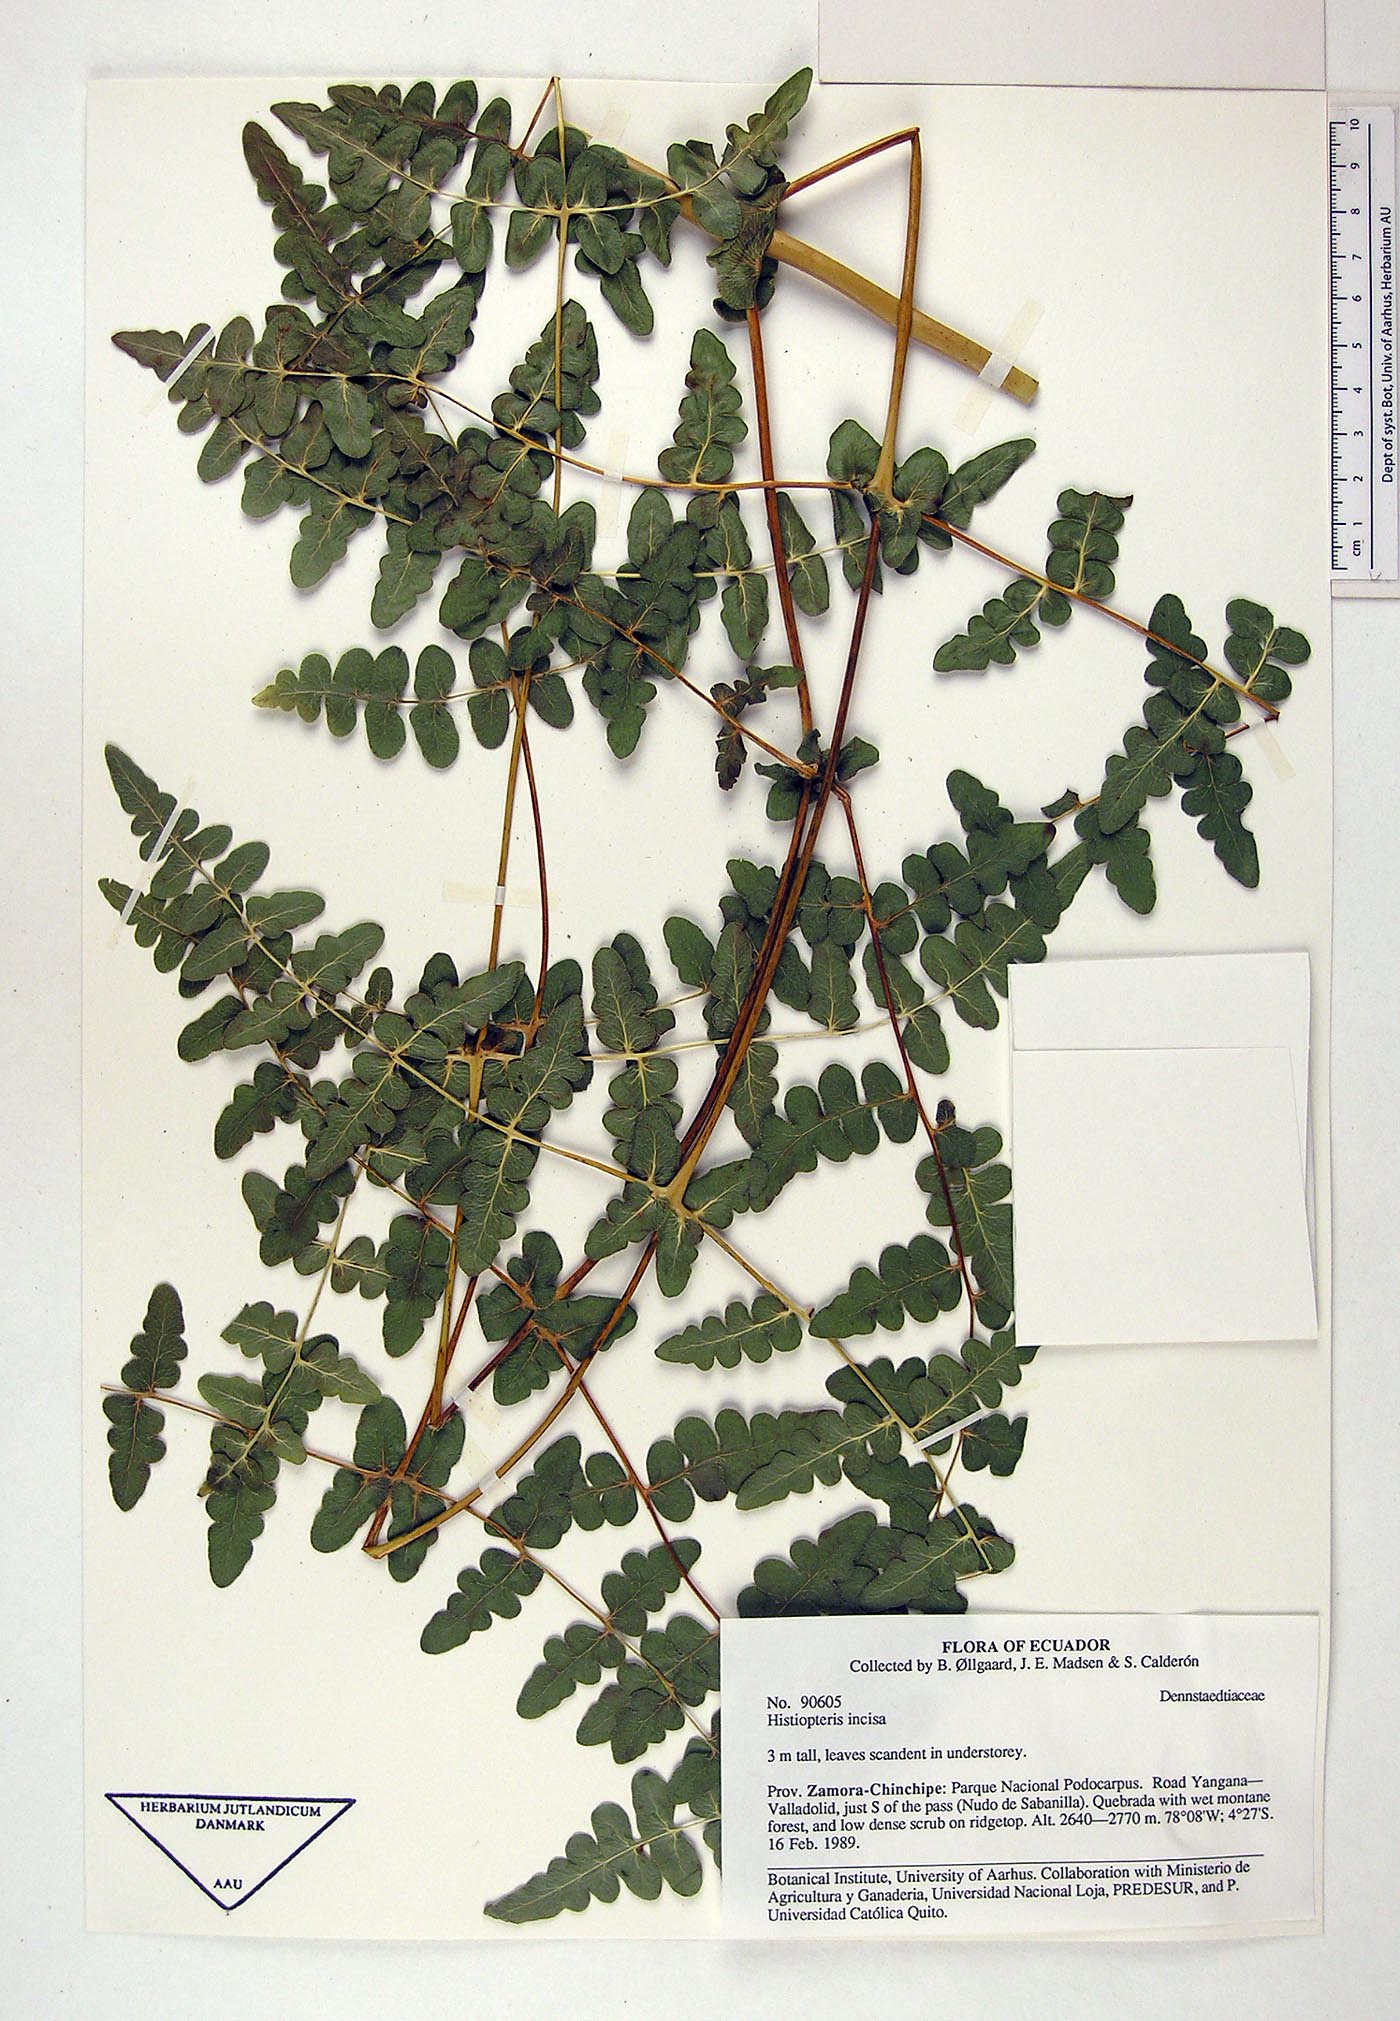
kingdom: Plantae
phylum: Tracheophyta
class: Polypodiopsida
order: Polypodiales
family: Dennstaedtiaceae
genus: Histiopteris
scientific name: Histiopteris incisa
